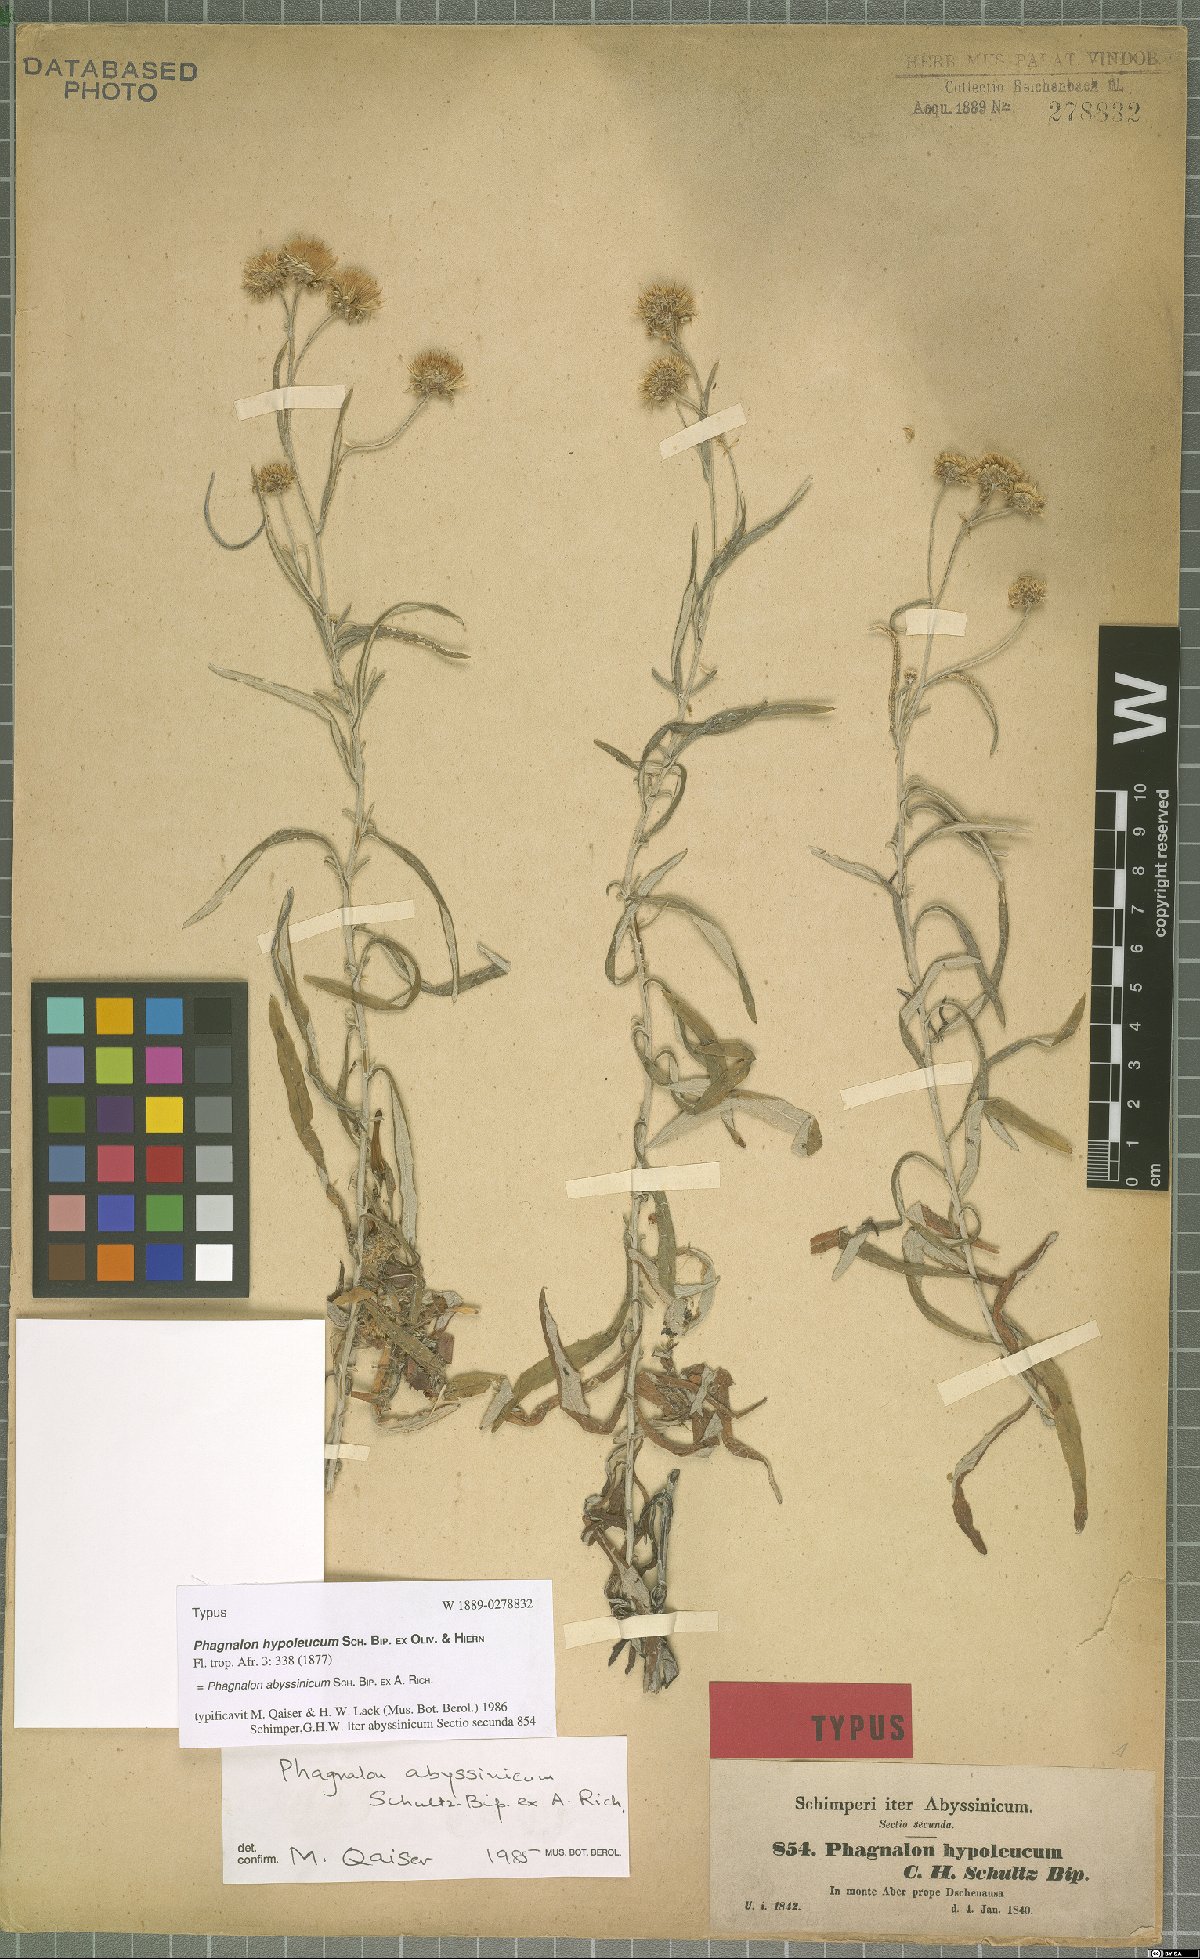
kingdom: Plantae
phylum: Tracheophyta
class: Magnoliopsida
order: Asterales
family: Asteraceae
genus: Phagnalon
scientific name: Phagnalon abyssinicum
